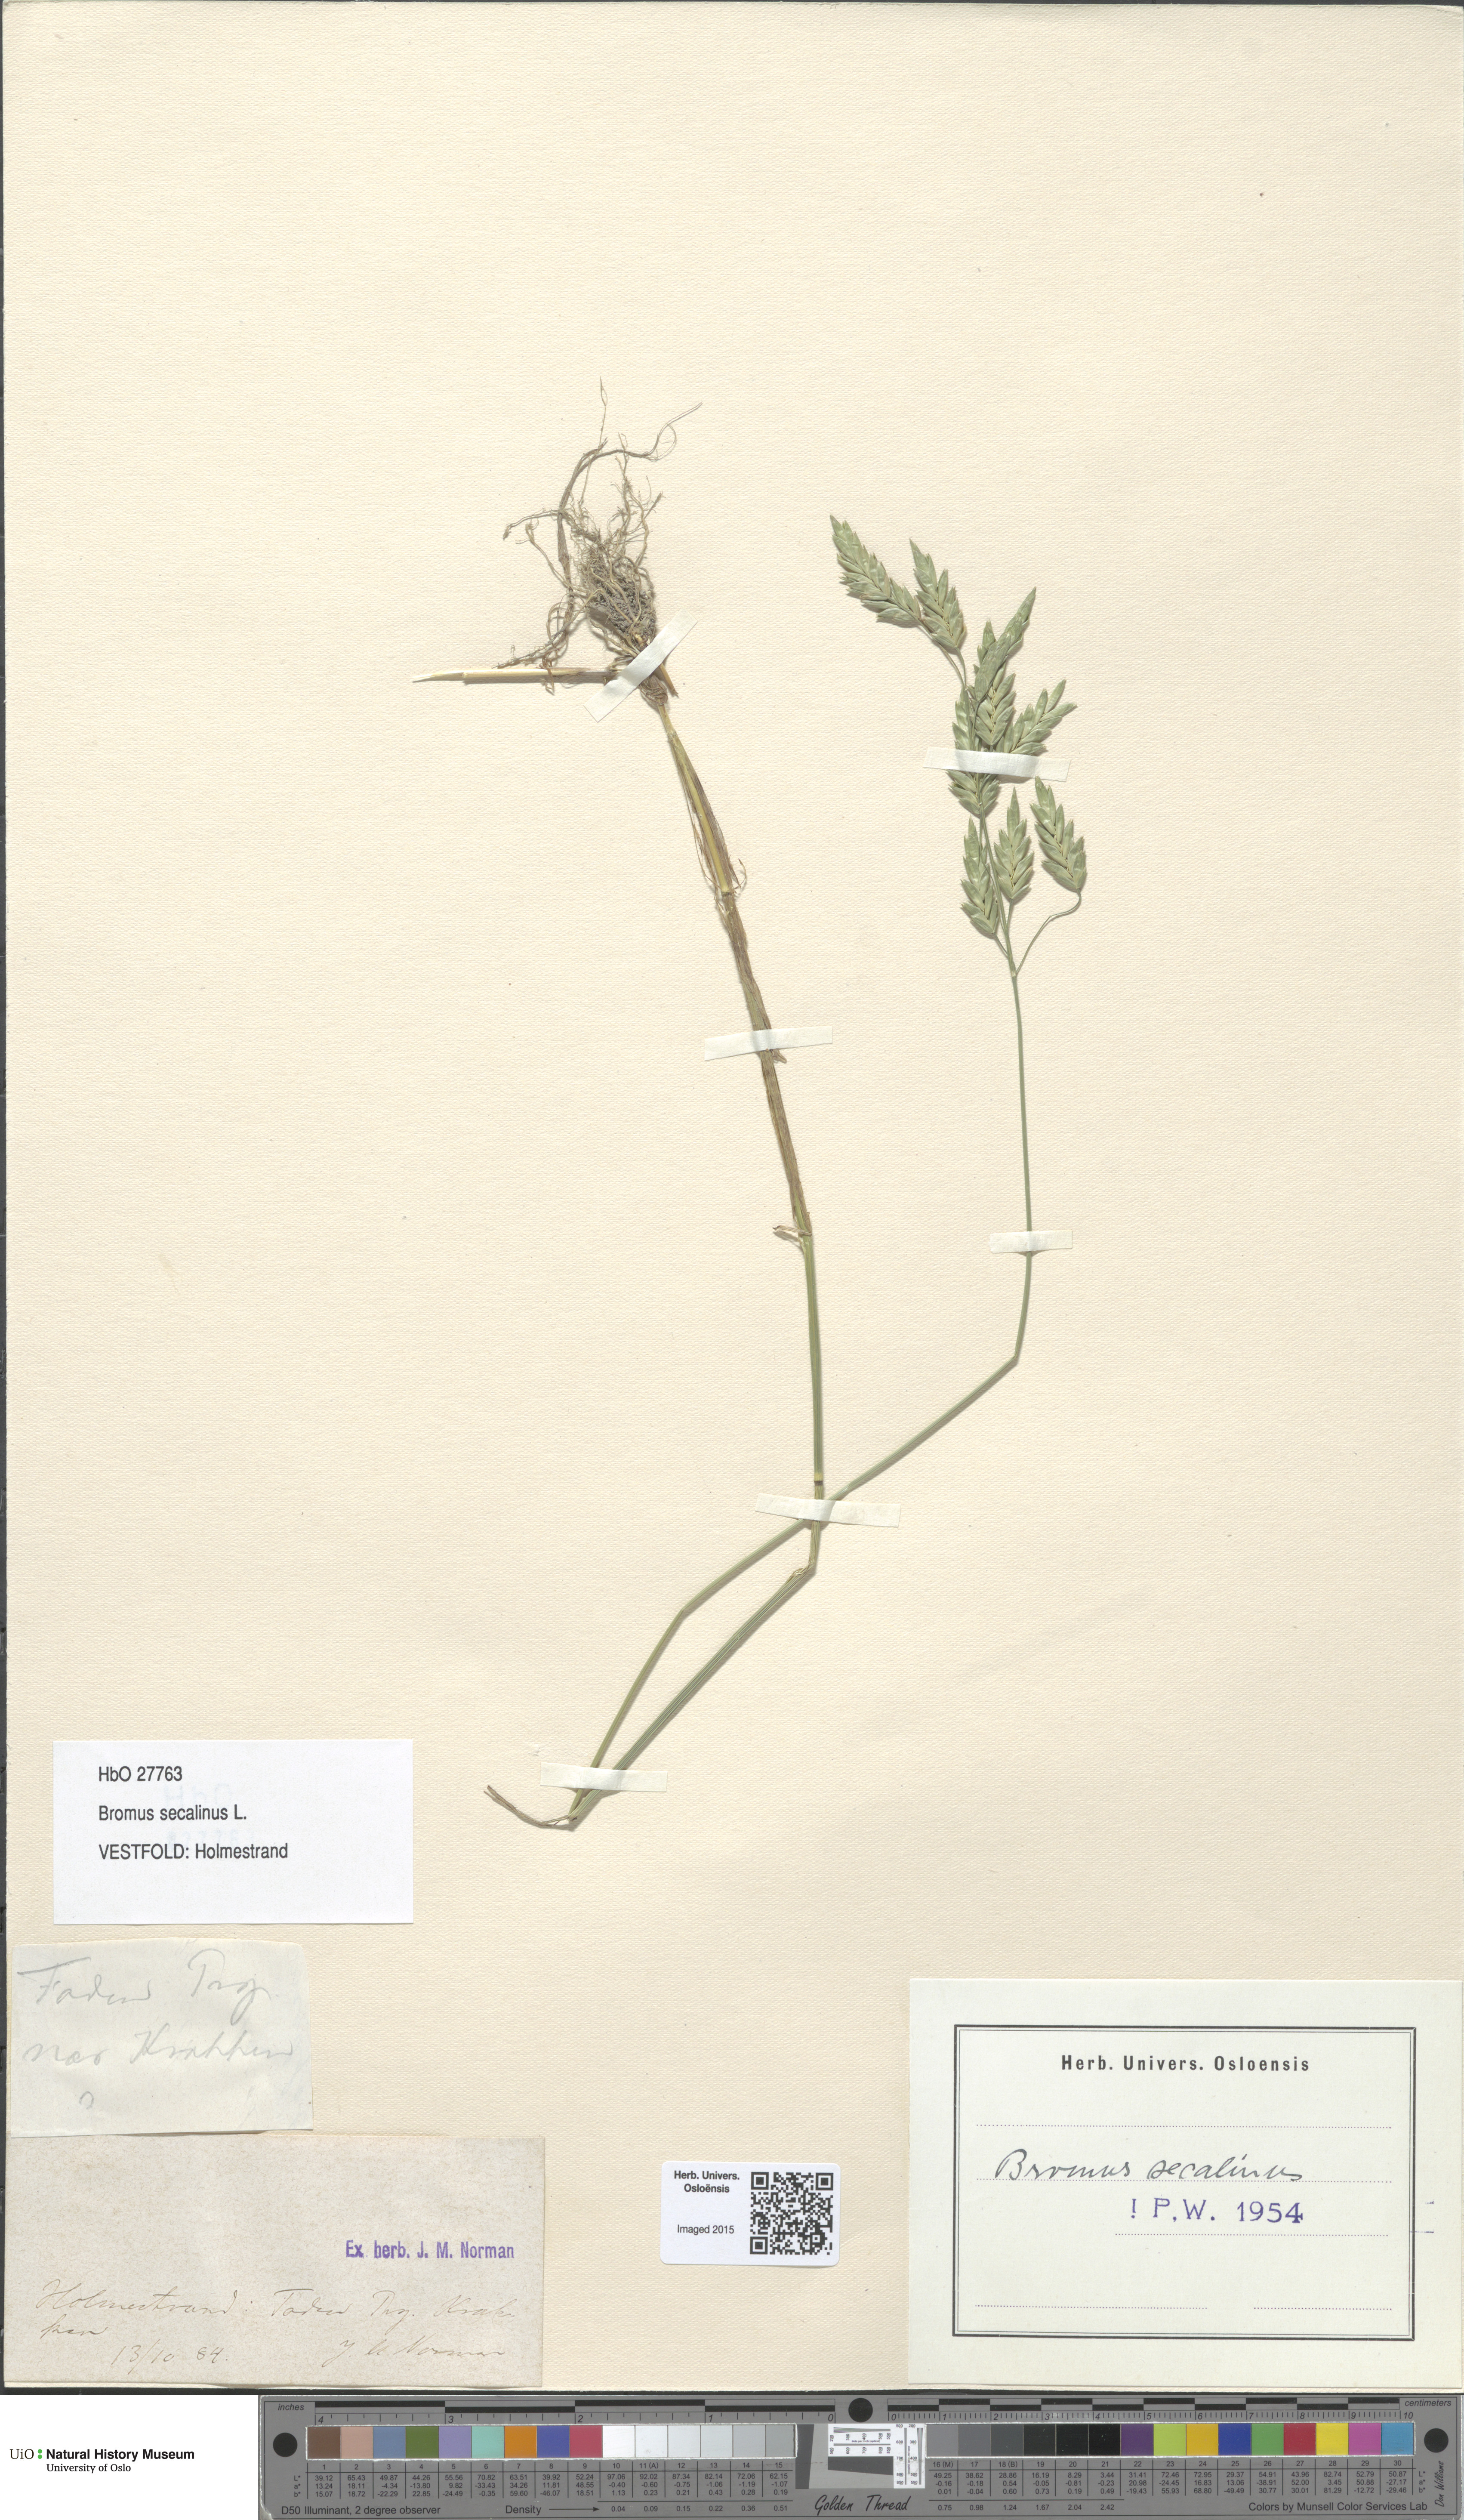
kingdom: Plantae
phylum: Tracheophyta
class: Liliopsida
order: Poales
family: Poaceae
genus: Bromus
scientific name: Bromus secalinus
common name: Rye brome
